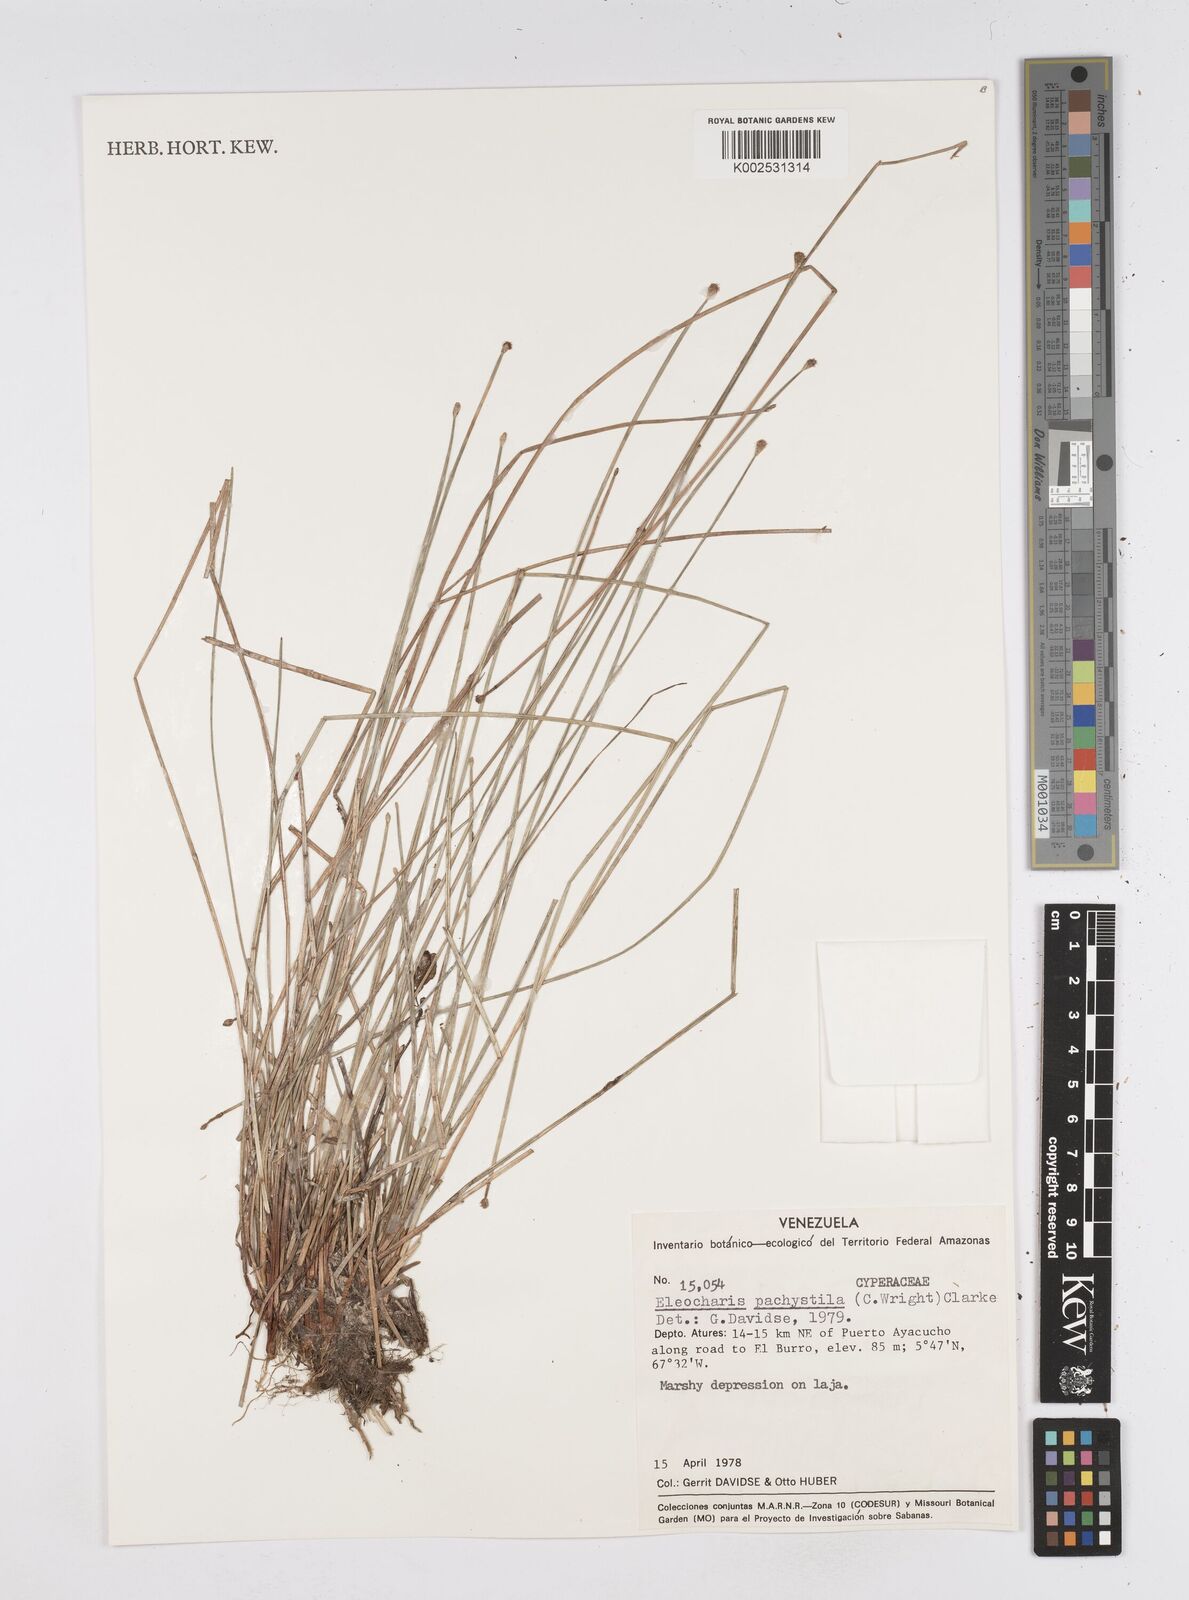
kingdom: Plantae
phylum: Tracheophyta
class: Liliopsida
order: Poales
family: Cyperaceae
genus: Eleocharis
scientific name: Eleocharis pachystyla
